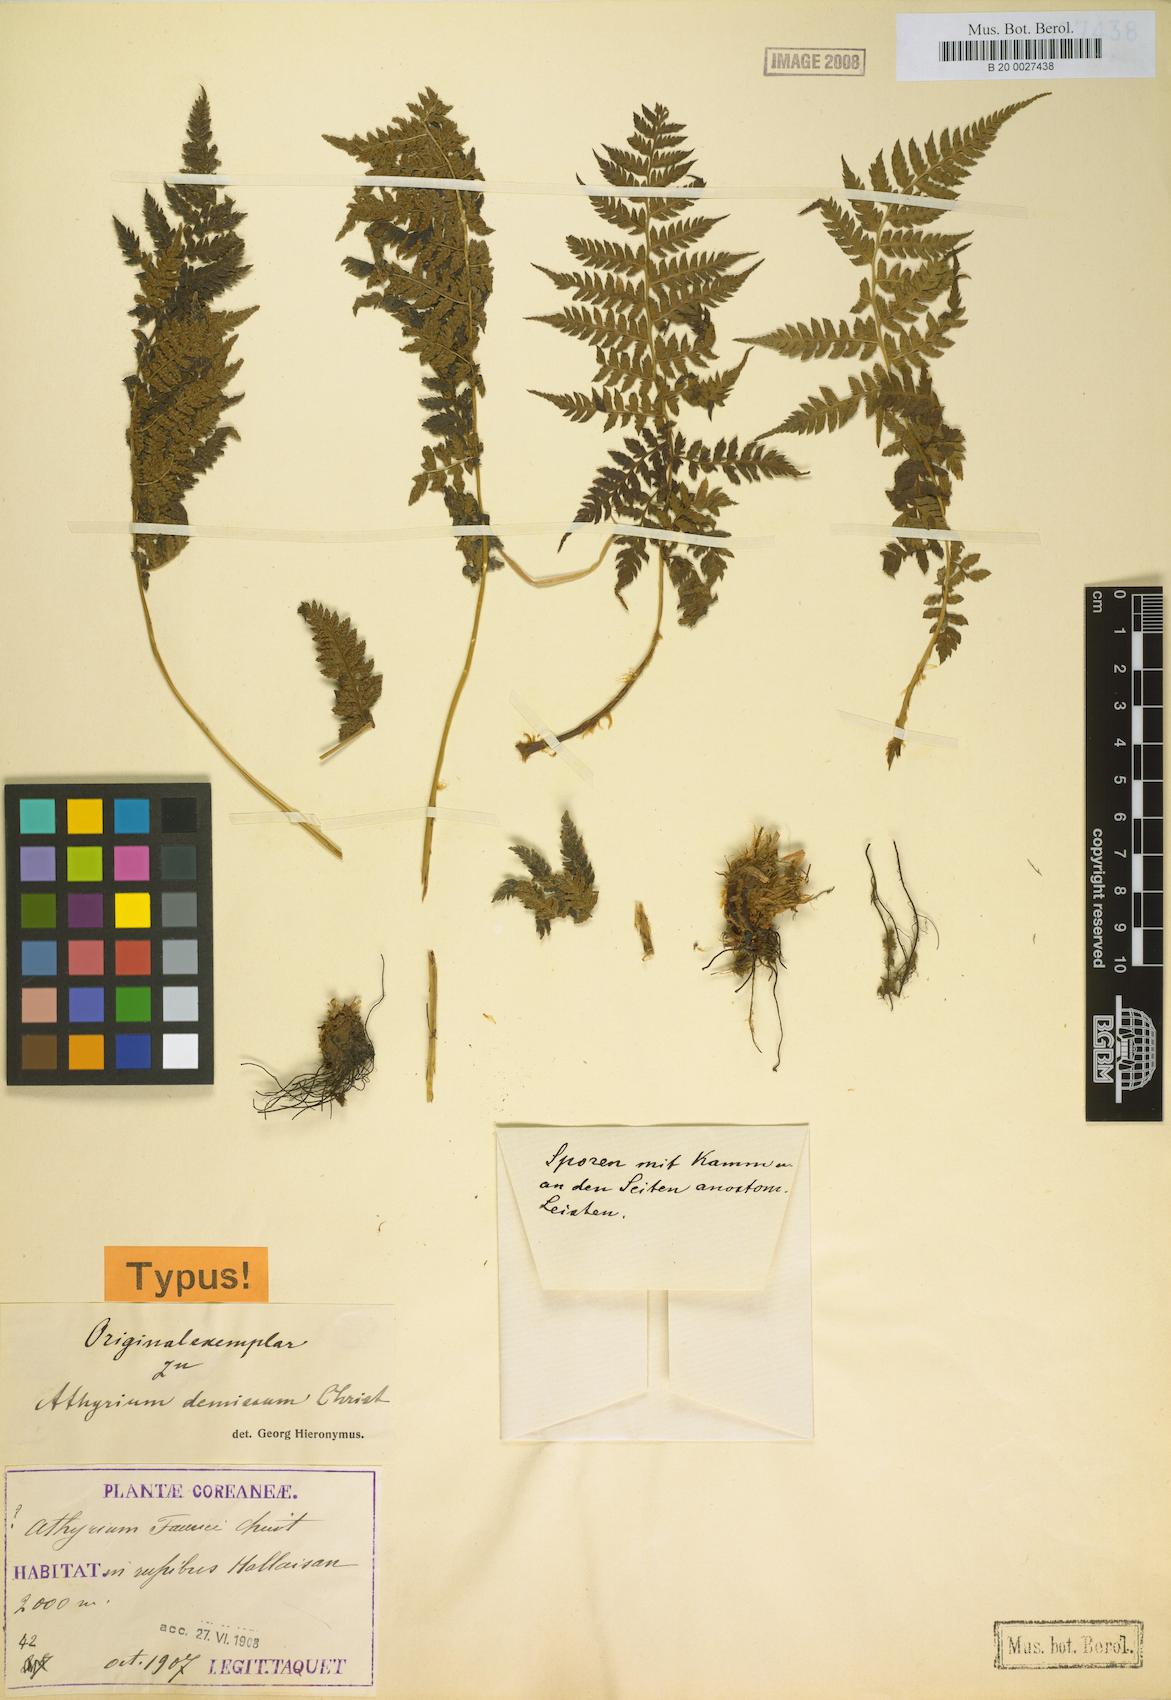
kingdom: Plantae
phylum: Tracheophyta
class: Polypodiopsida
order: Polypodiales
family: Athyriaceae
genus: Athyrium
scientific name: Athyrium yokoscense
